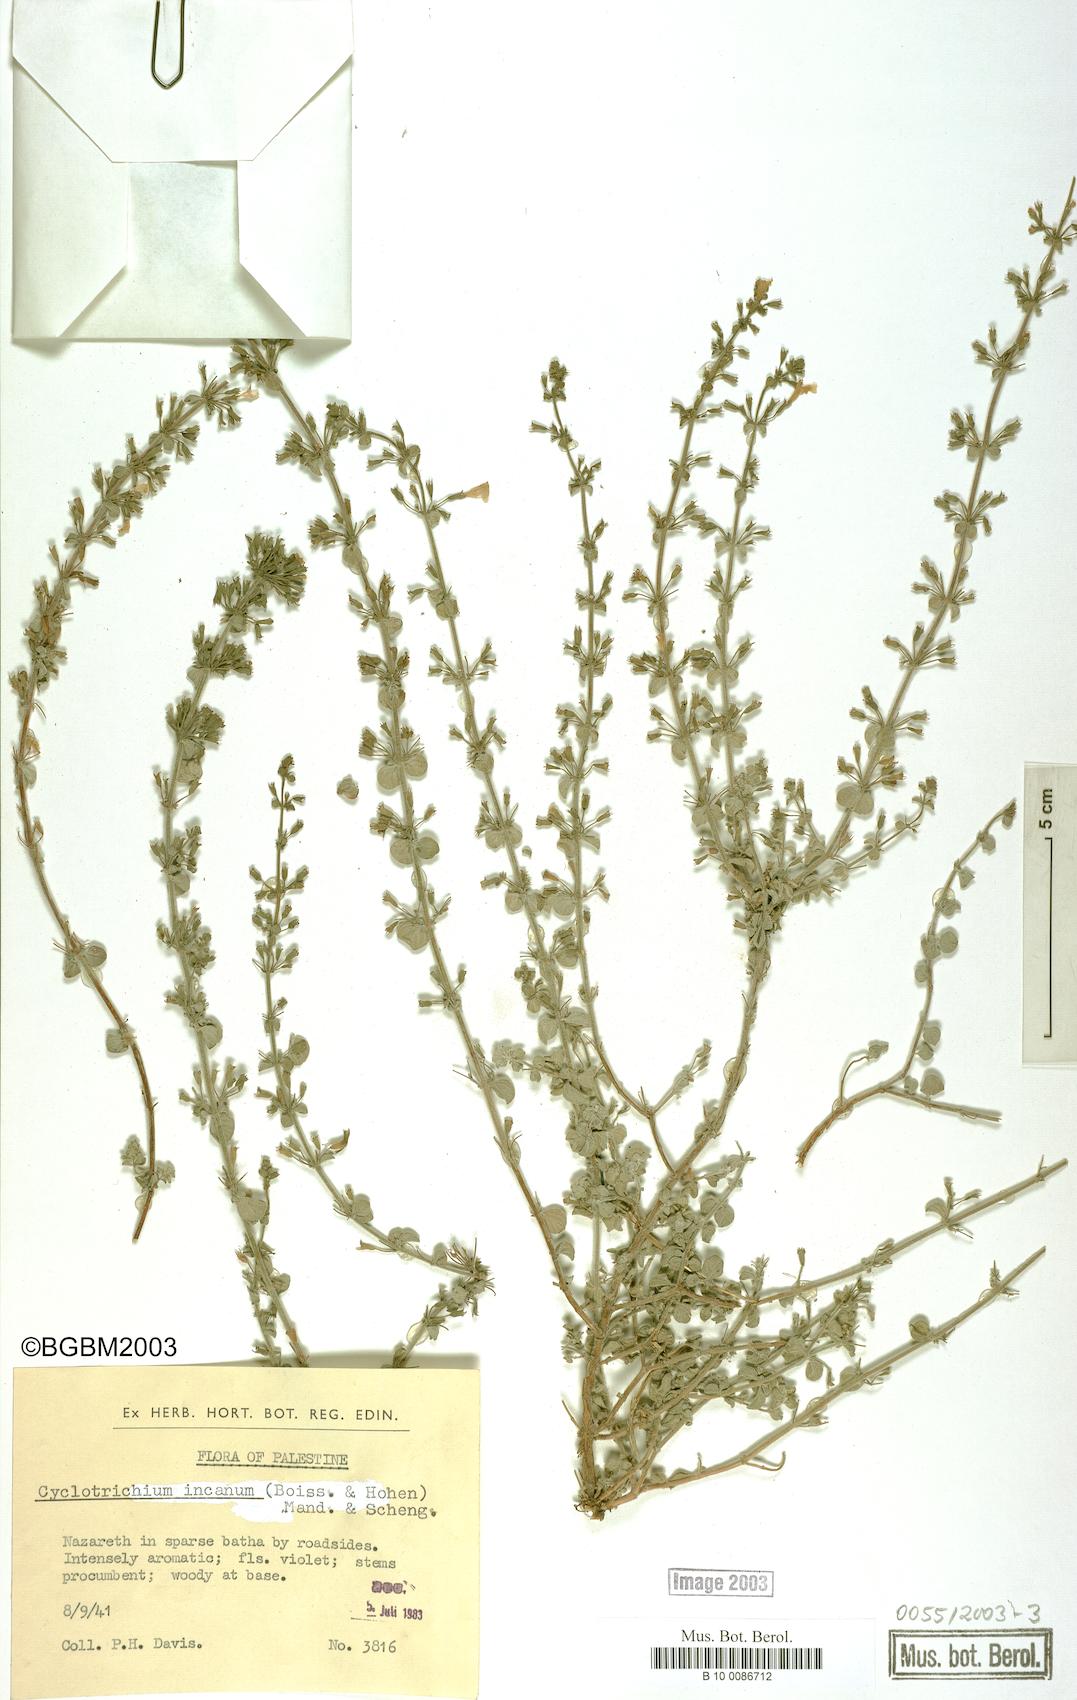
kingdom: Plantae
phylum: Tracheophyta
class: Magnoliopsida
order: Lamiales
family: Lamiaceae
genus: Cyclotrichium
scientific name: Cyclotrichium
